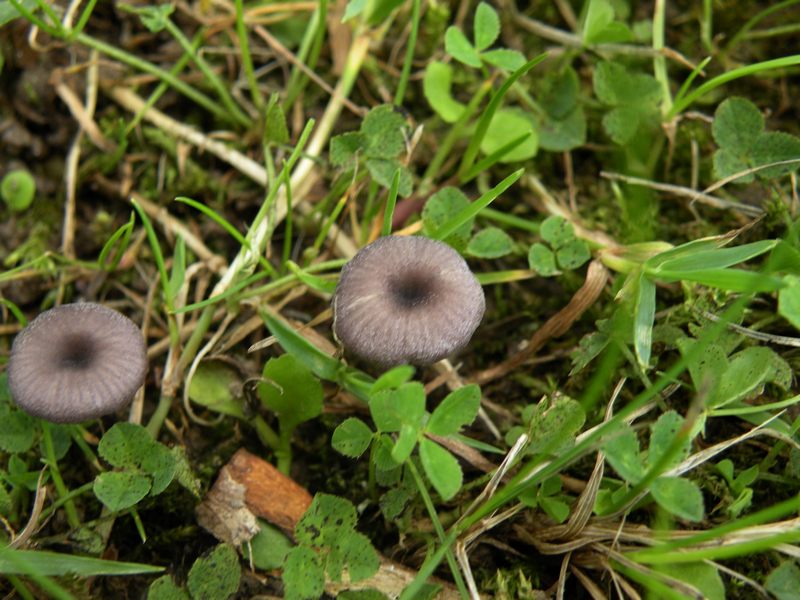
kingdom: Fungi
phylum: Basidiomycota
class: Agaricomycetes
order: Agaricales
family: Entolomataceae
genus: Entoloma
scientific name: Entoloma incarnatofuscescens
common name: tragt-rødblad
